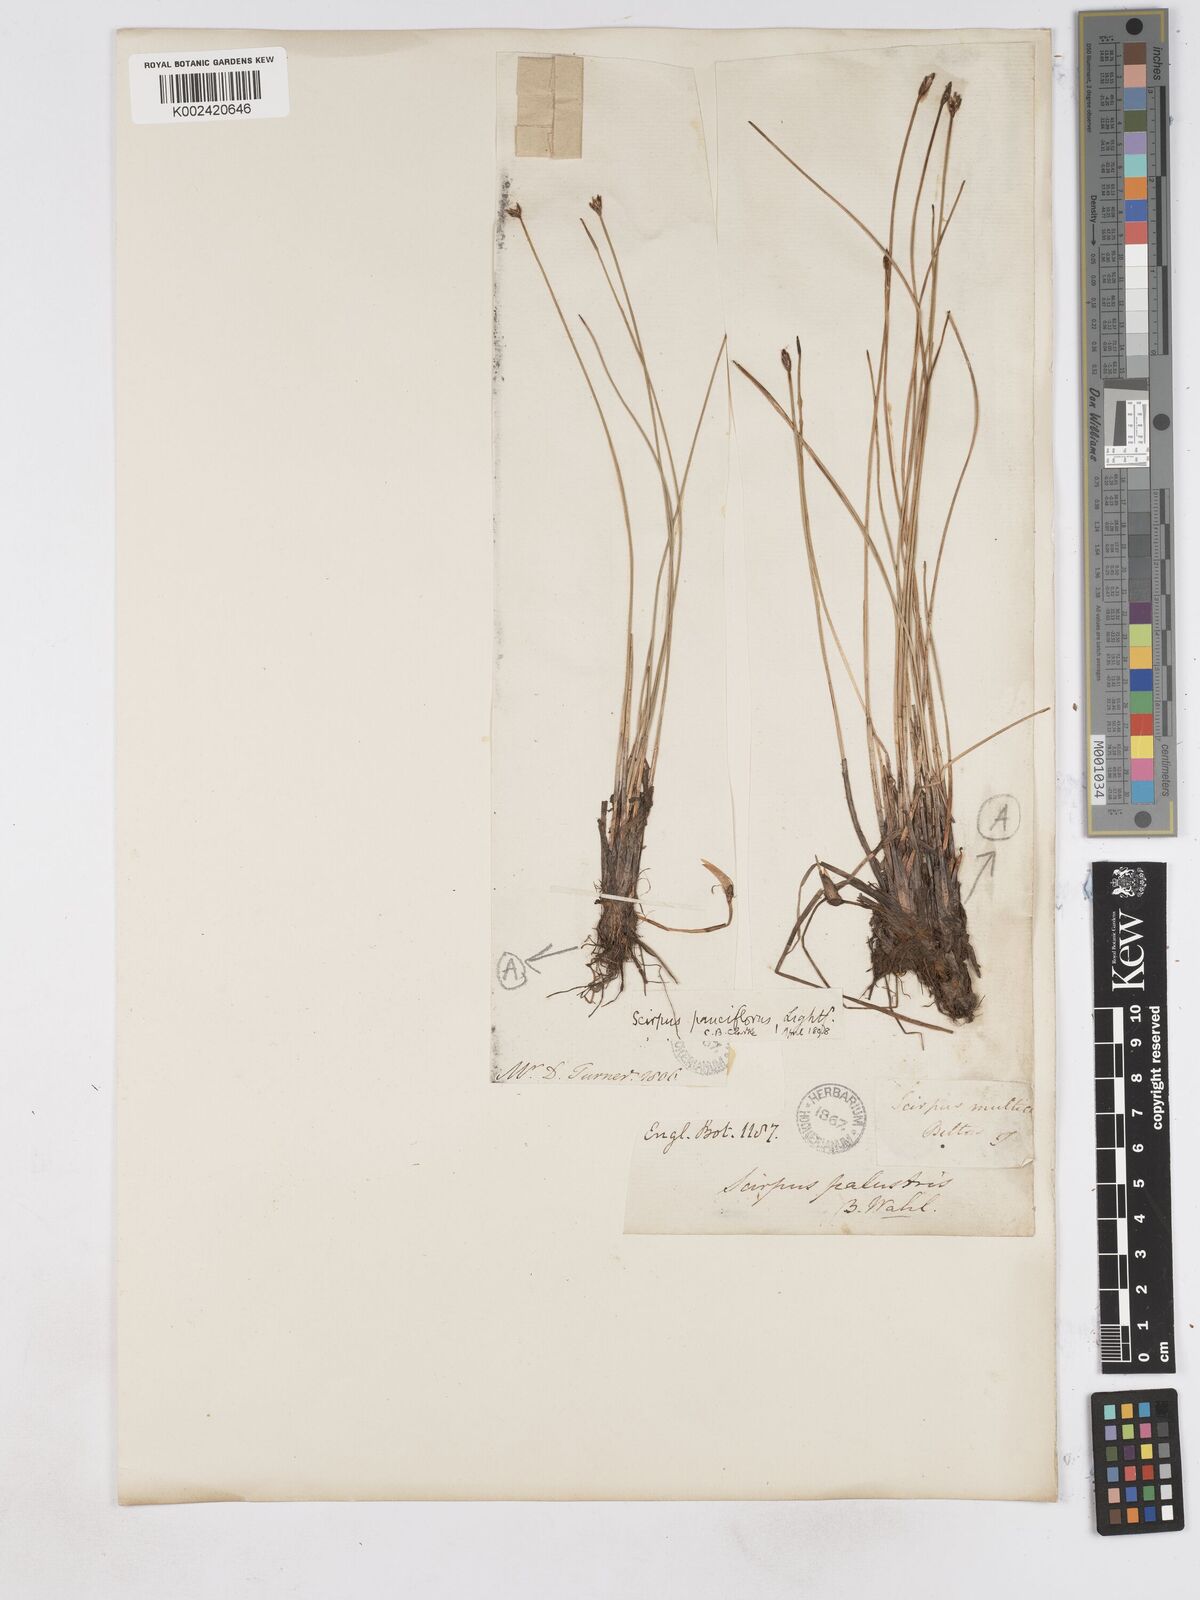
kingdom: Plantae
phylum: Tracheophyta
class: Liliopsida
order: Poales
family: Cyperaceae
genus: Eleocharis
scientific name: Eleocharis quinqueflora
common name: Few-flowered spike-rush
